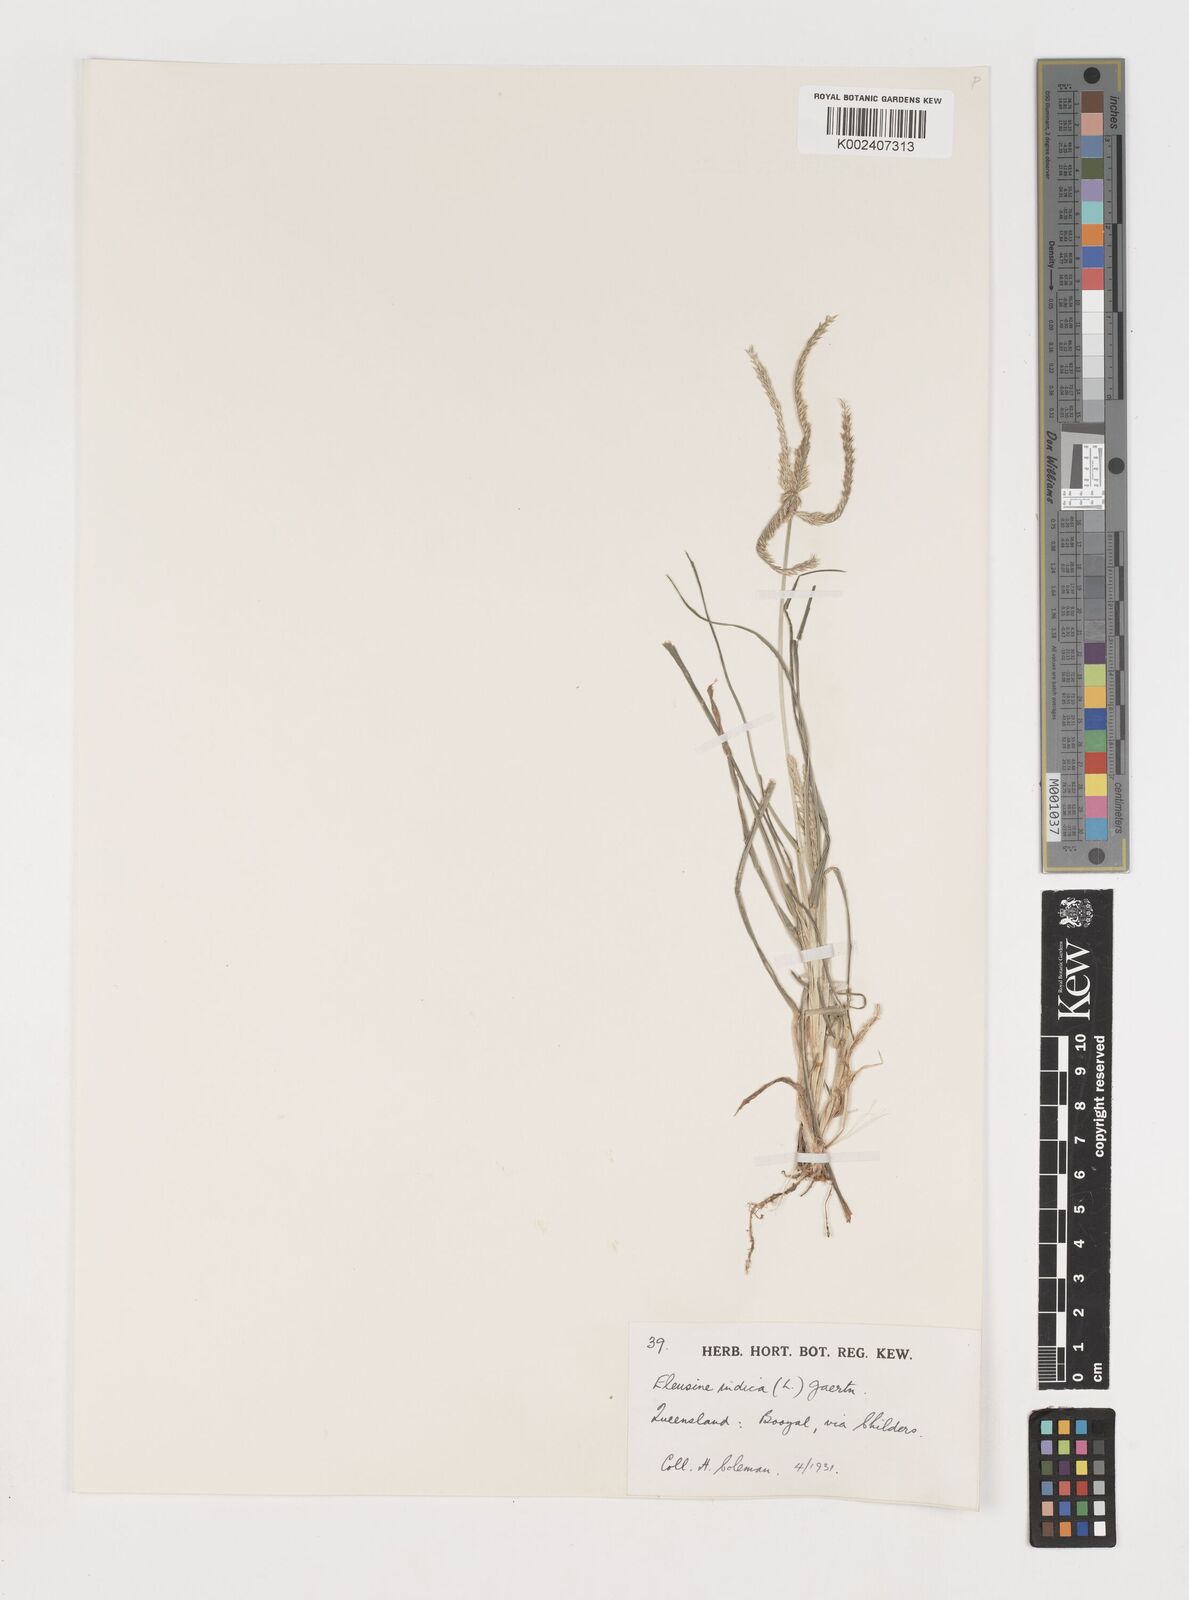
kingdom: Plantae
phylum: Tracheophyta
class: Liliopsida
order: Poales
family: Poaceae
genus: Eleusine
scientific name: Eleusine indica
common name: Yard-grass
